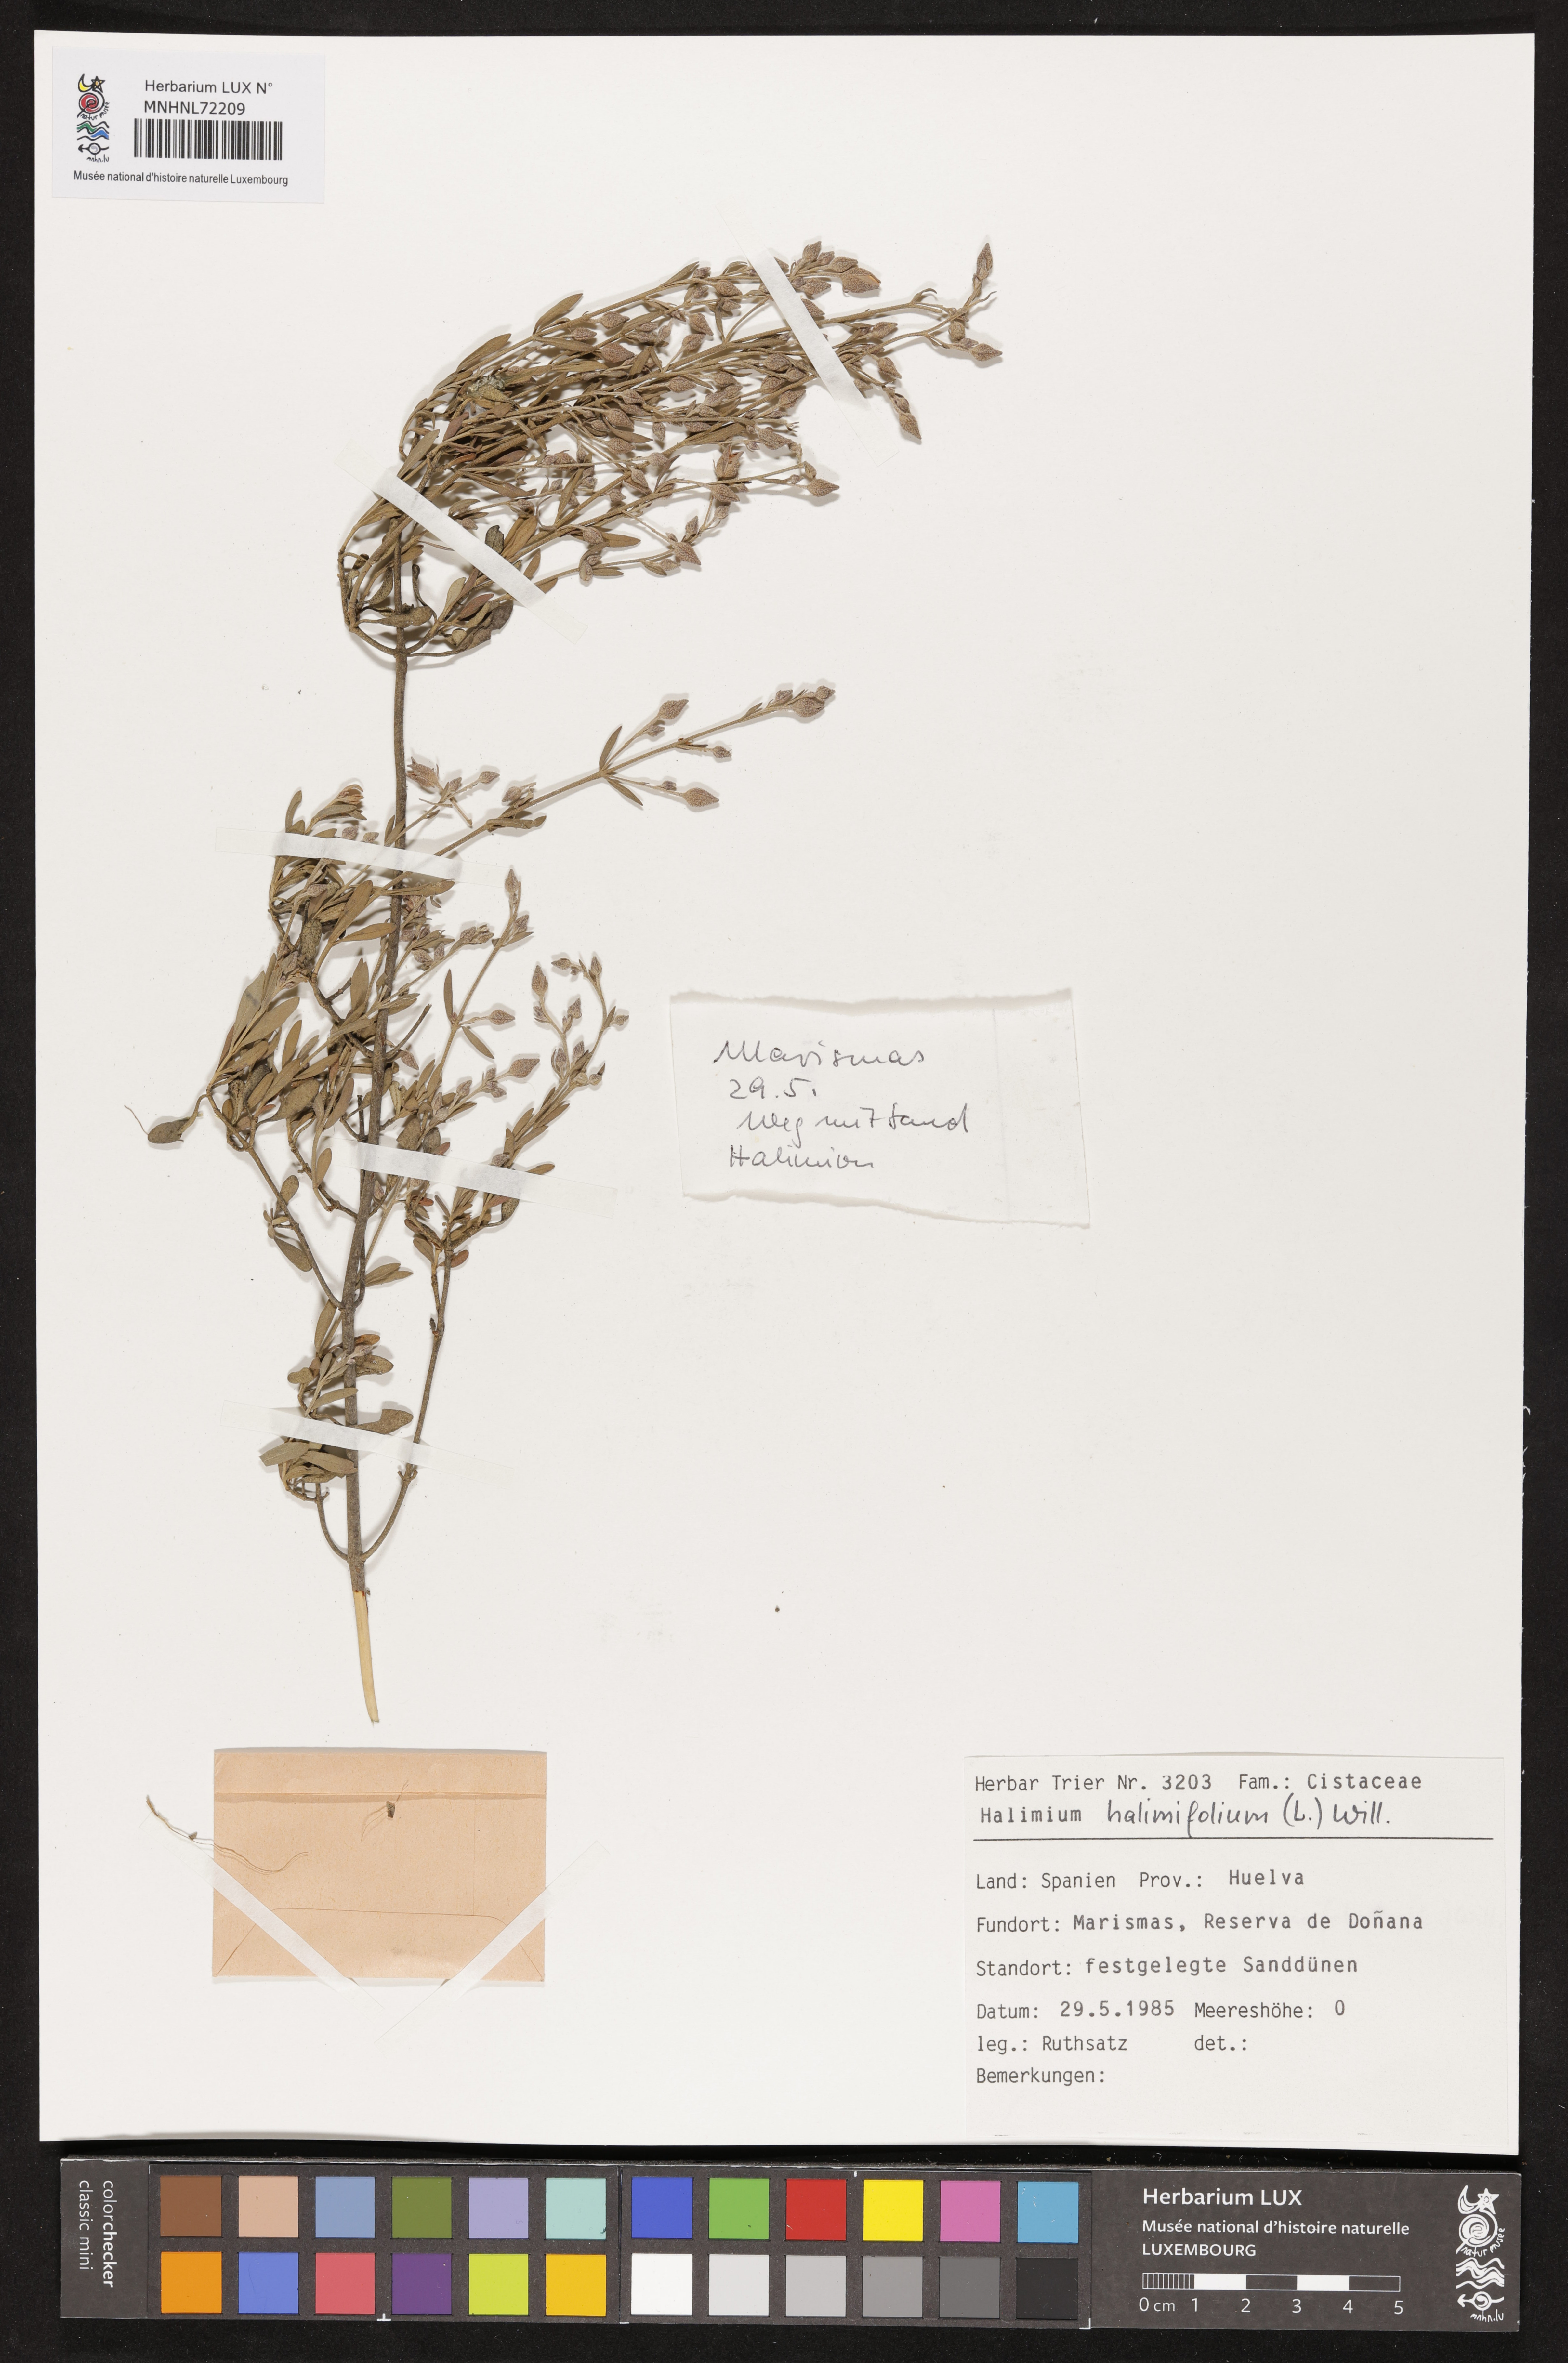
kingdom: Plantae
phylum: Tracheophyta
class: Magnoliopsida
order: Malvales
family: Cistaceae
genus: Halimium
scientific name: Halimium halimifolium
